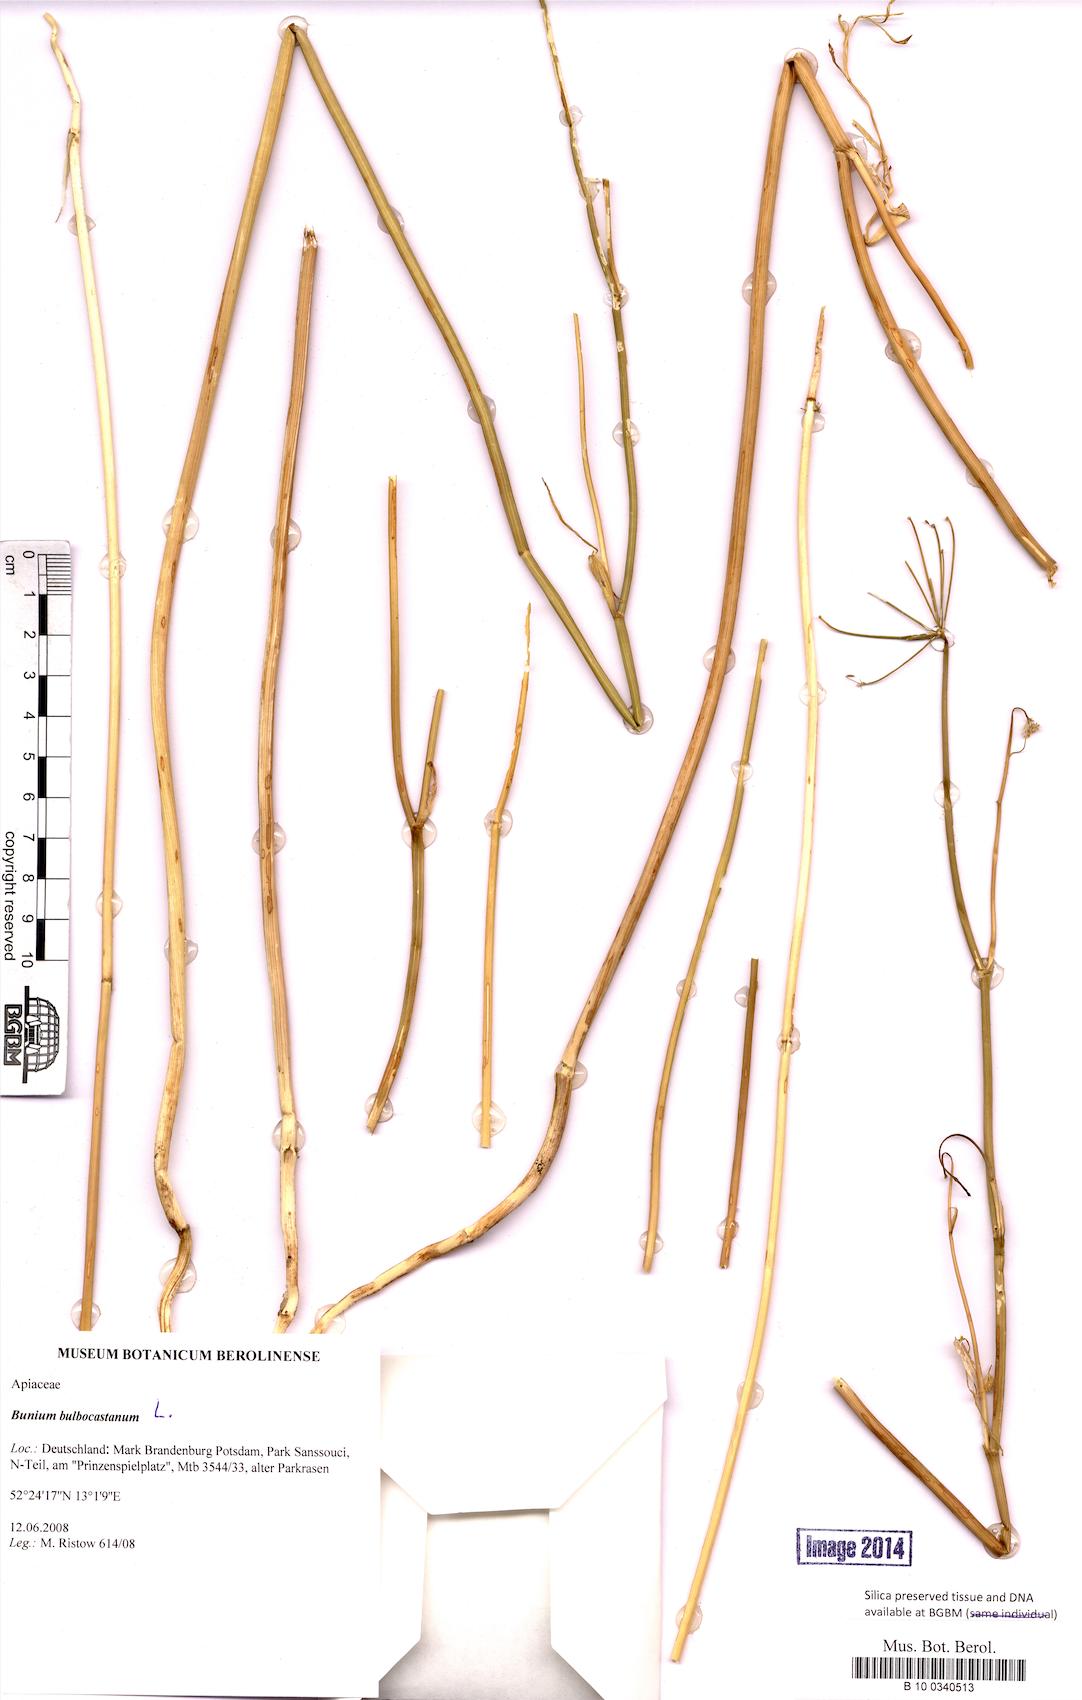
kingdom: Plantae
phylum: Tracheophyta
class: Magnoliopsida
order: Apiales
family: Apiaceae
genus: Bunium
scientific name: Bunium bulbocastanum
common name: Great pignut
